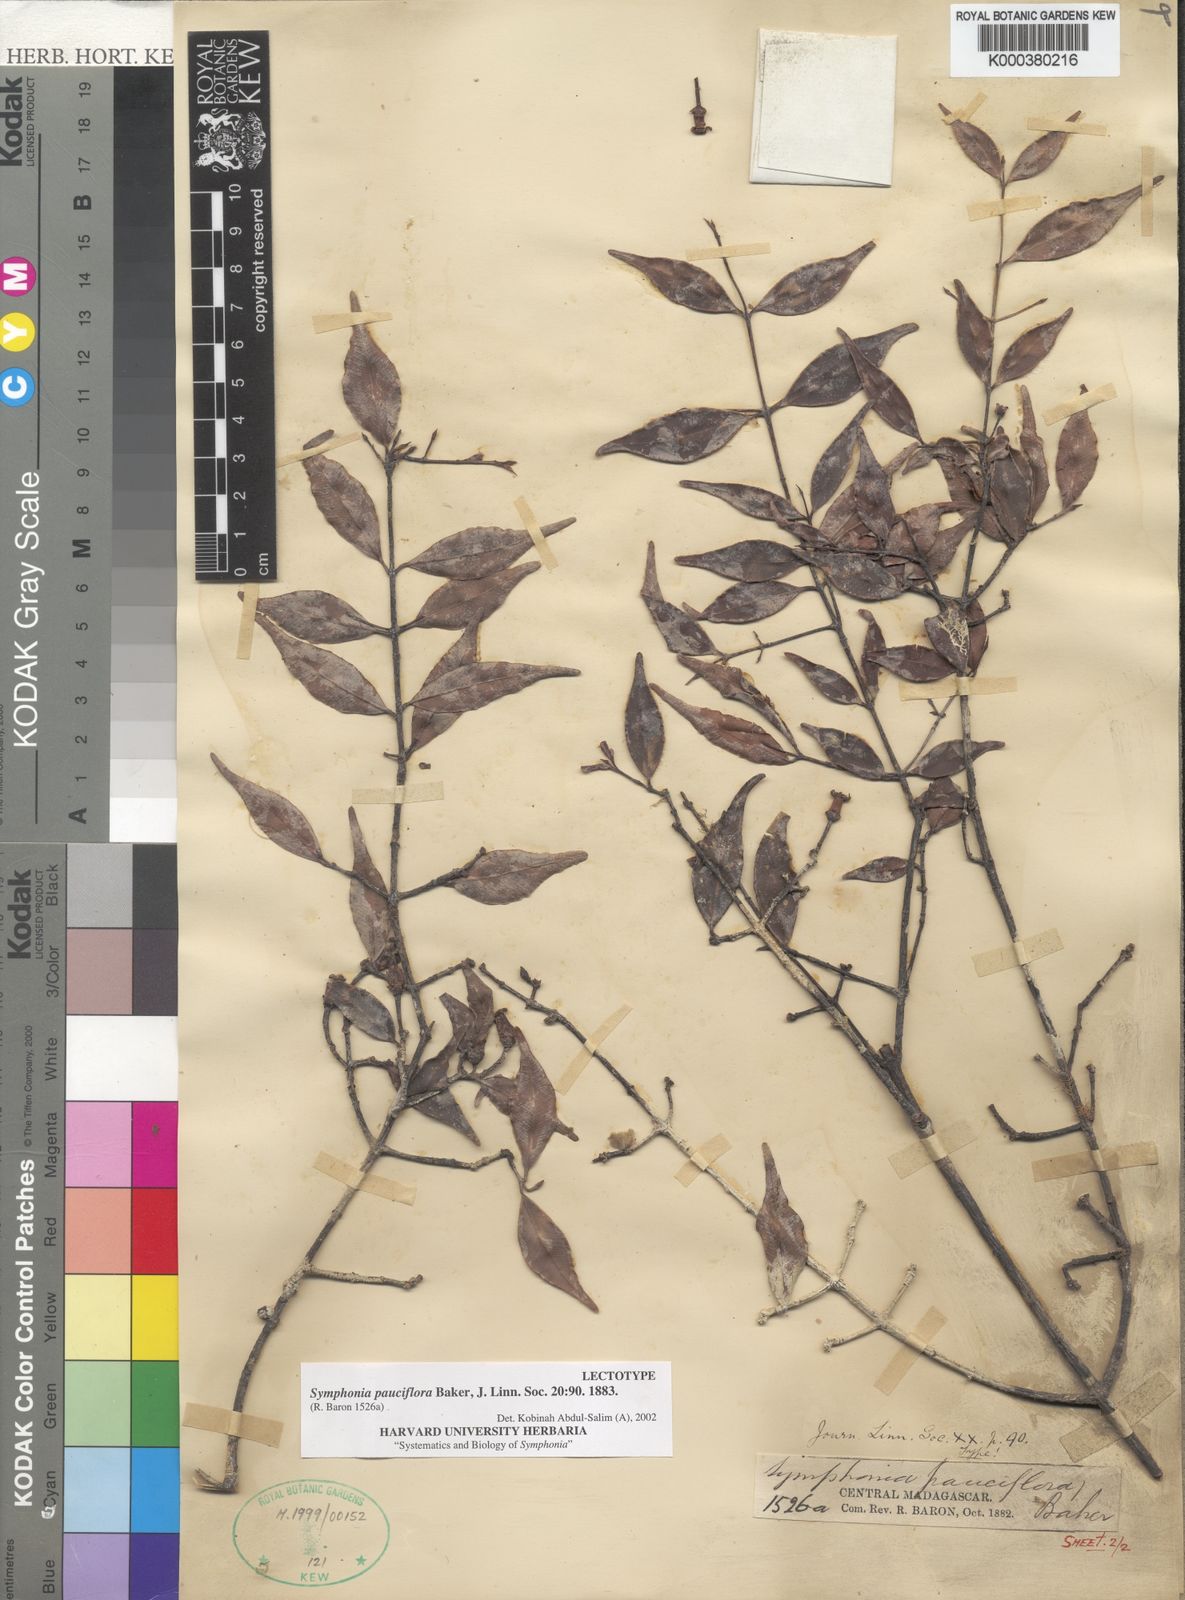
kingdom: Plantae
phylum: Tracheophyta
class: Magnoliopsida
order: Malpighiales
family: Clusiaceae
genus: Symphonia
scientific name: Symphonia pauciflora
